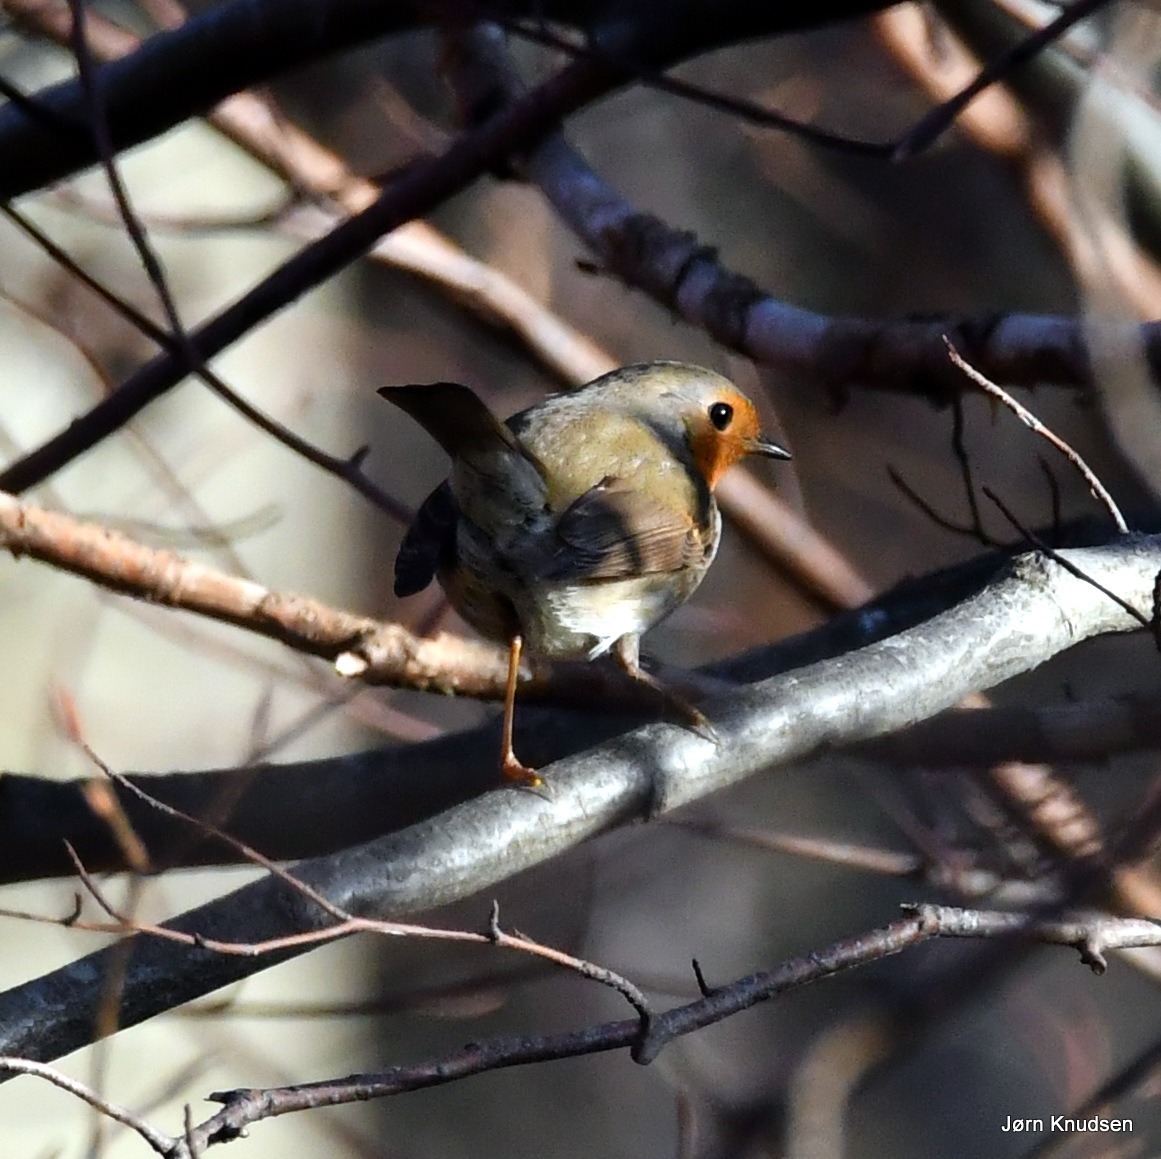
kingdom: Animalia
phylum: Chordata
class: Aves
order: Passeriformes
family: Muscicapidae
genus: Erithacus
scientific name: Erithacus rubecula
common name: Rødhals/rødkælk
